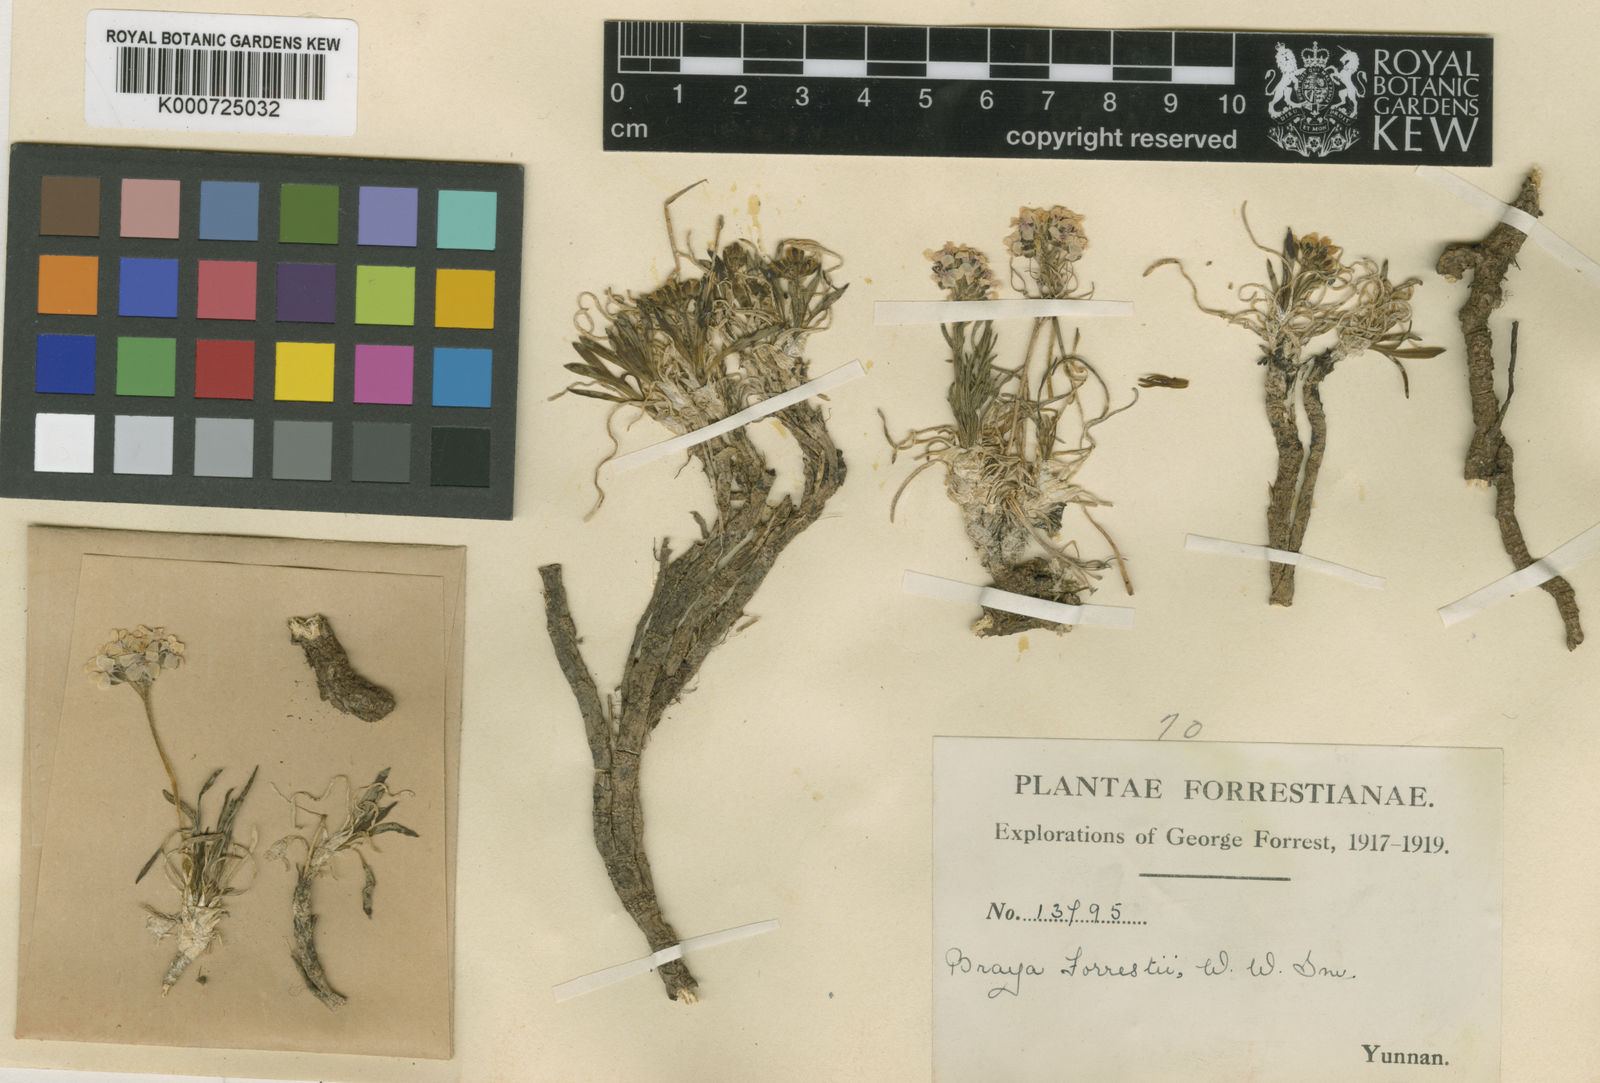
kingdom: Plantae
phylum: Tracheophyta
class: Magnoliopsida
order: Brassicales
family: Brassicaceae
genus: Metashangrilaia
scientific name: Metashangrilaia forrestii
